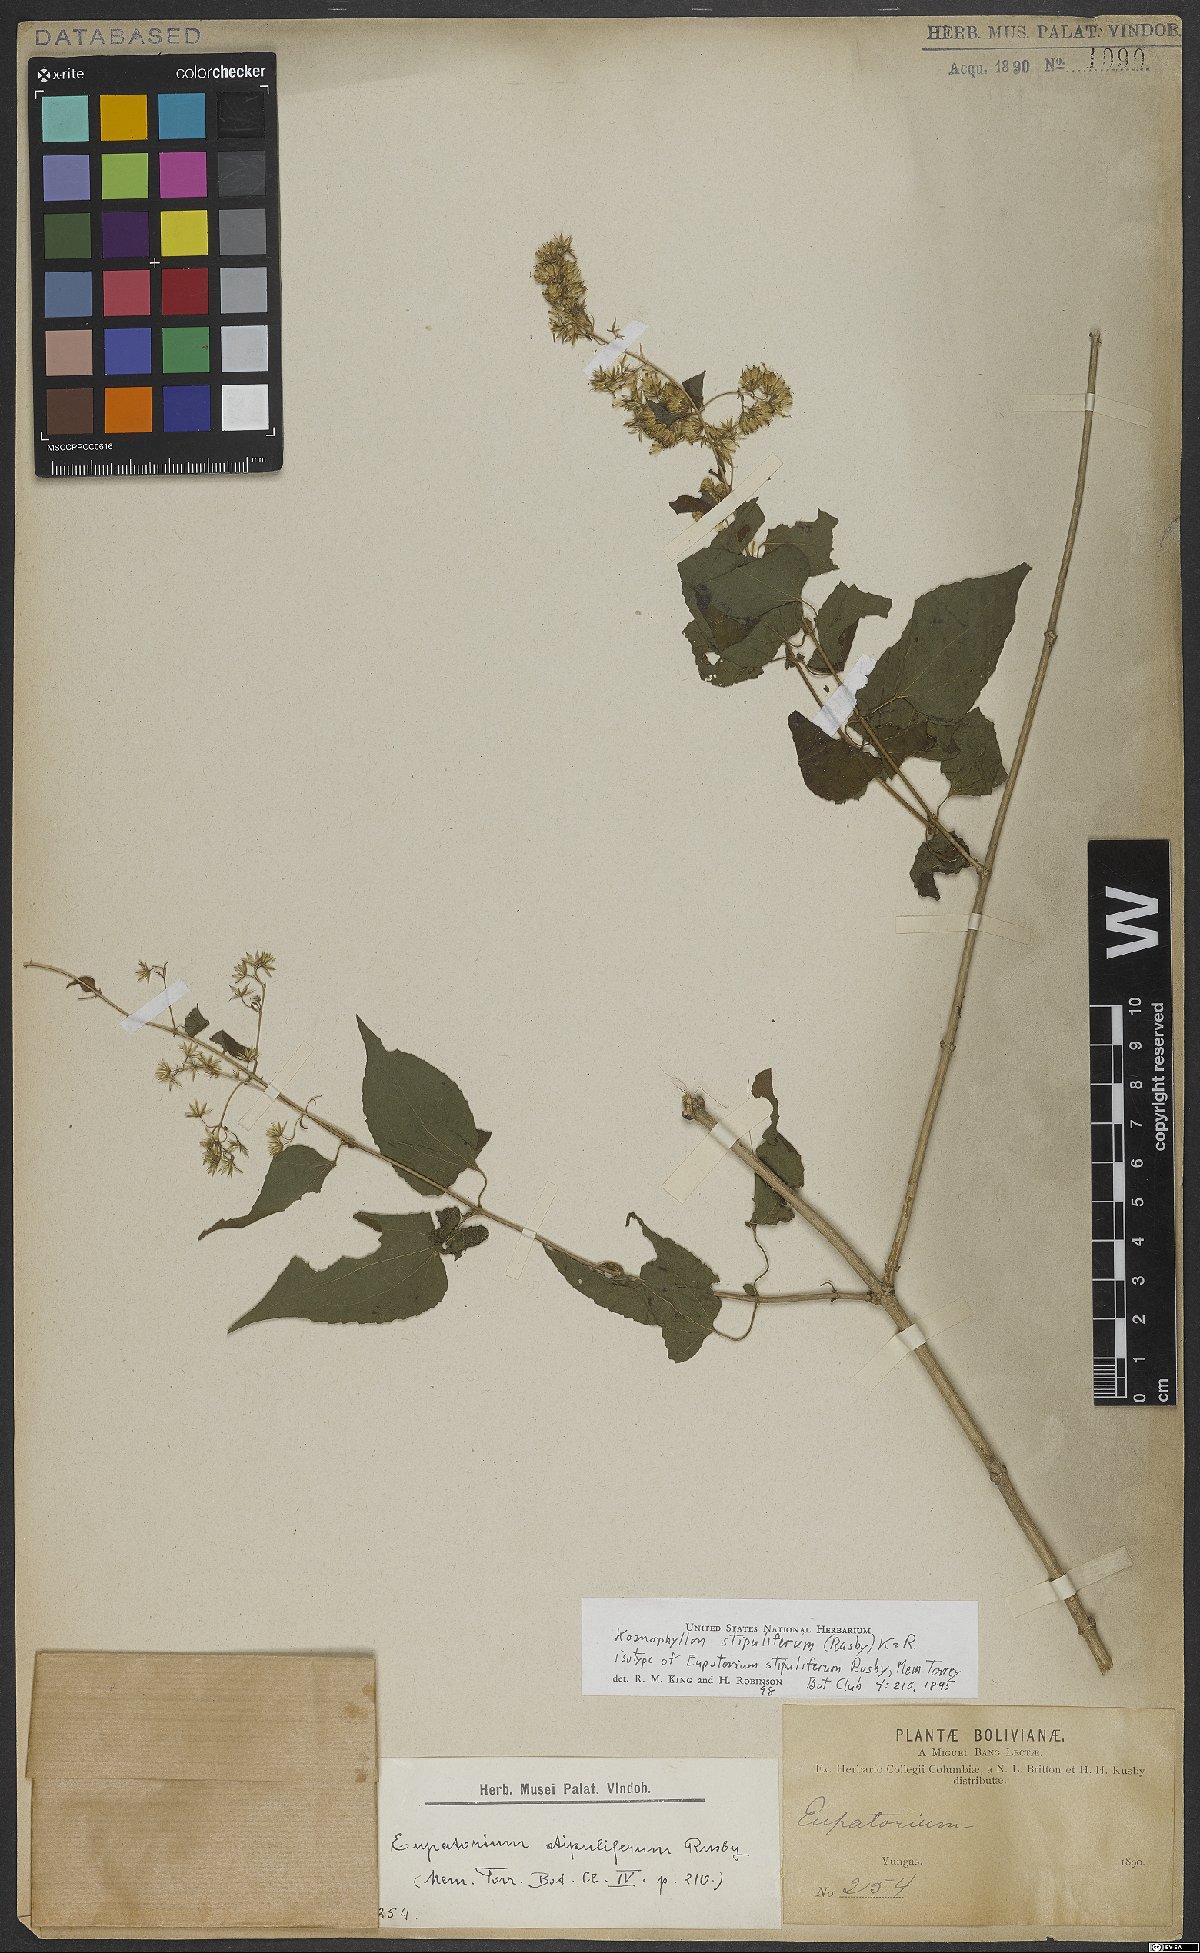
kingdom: Plantae
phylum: Tracheophyta
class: Magnoliopsida
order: Asterales
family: Asteraceae
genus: Koanophyllon
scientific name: Koanophyllon solidaginoides
